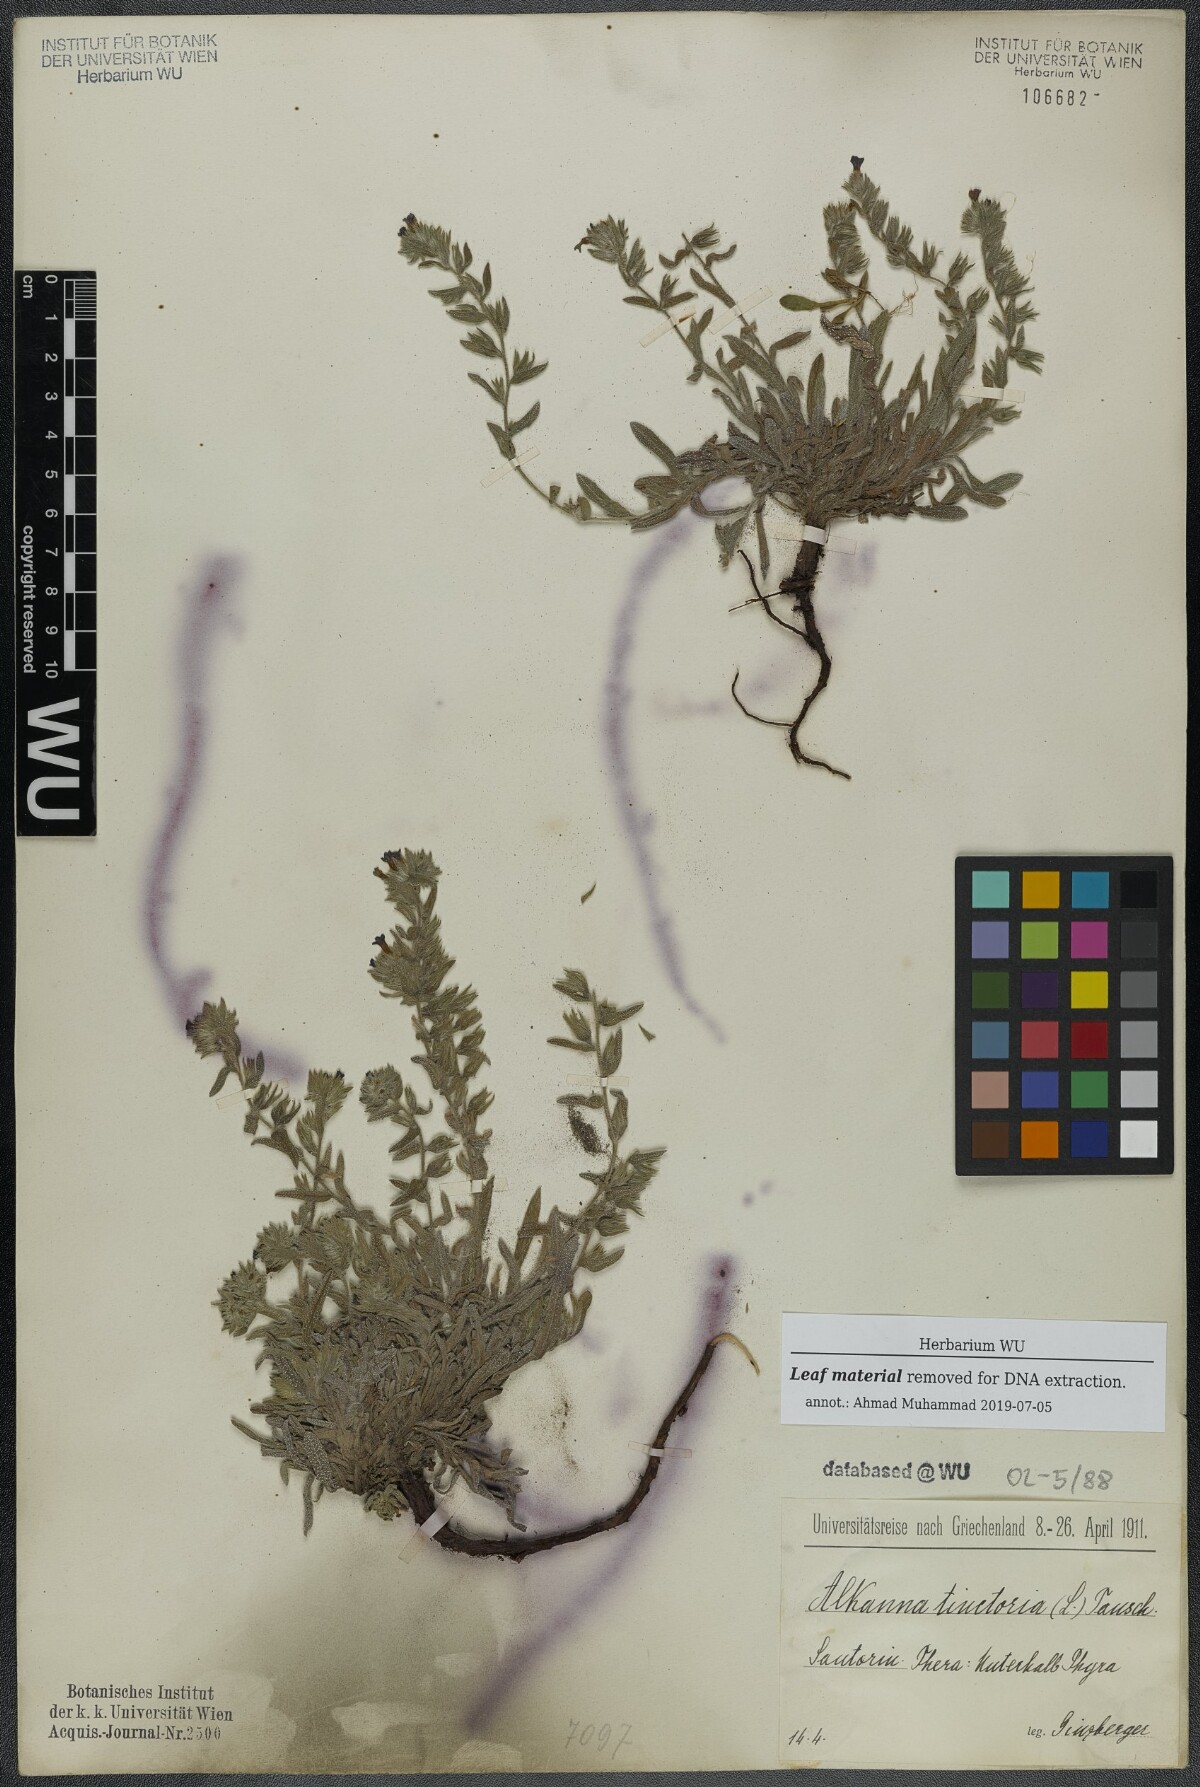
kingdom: Plantae
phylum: Tracheophyta
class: Magnoliopsida
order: Boraginales
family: Boraginaceae
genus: Alkanna
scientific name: Alkanna tinctoria
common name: Dyer's-alkanet
